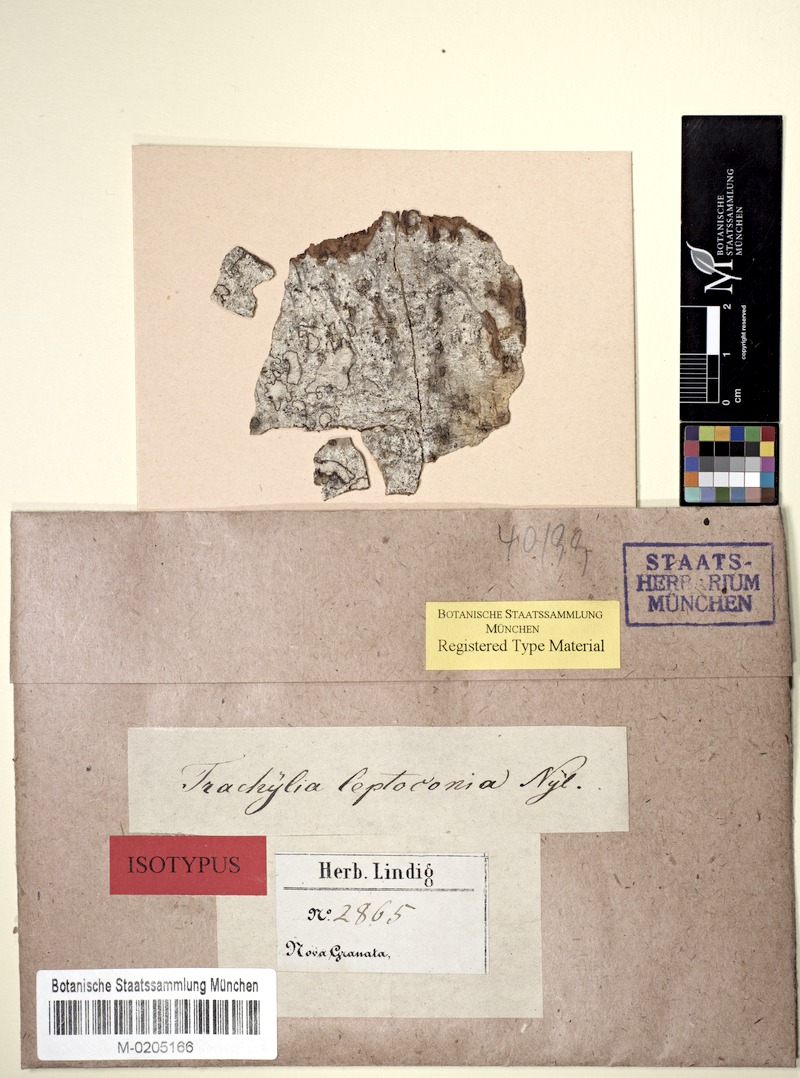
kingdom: Fungi
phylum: Ascomycota
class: Eurotiomycetes
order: Mycocaliciales
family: Sphinctrinaceae
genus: Pyrgidium
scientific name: Pyrgidium montellicum
